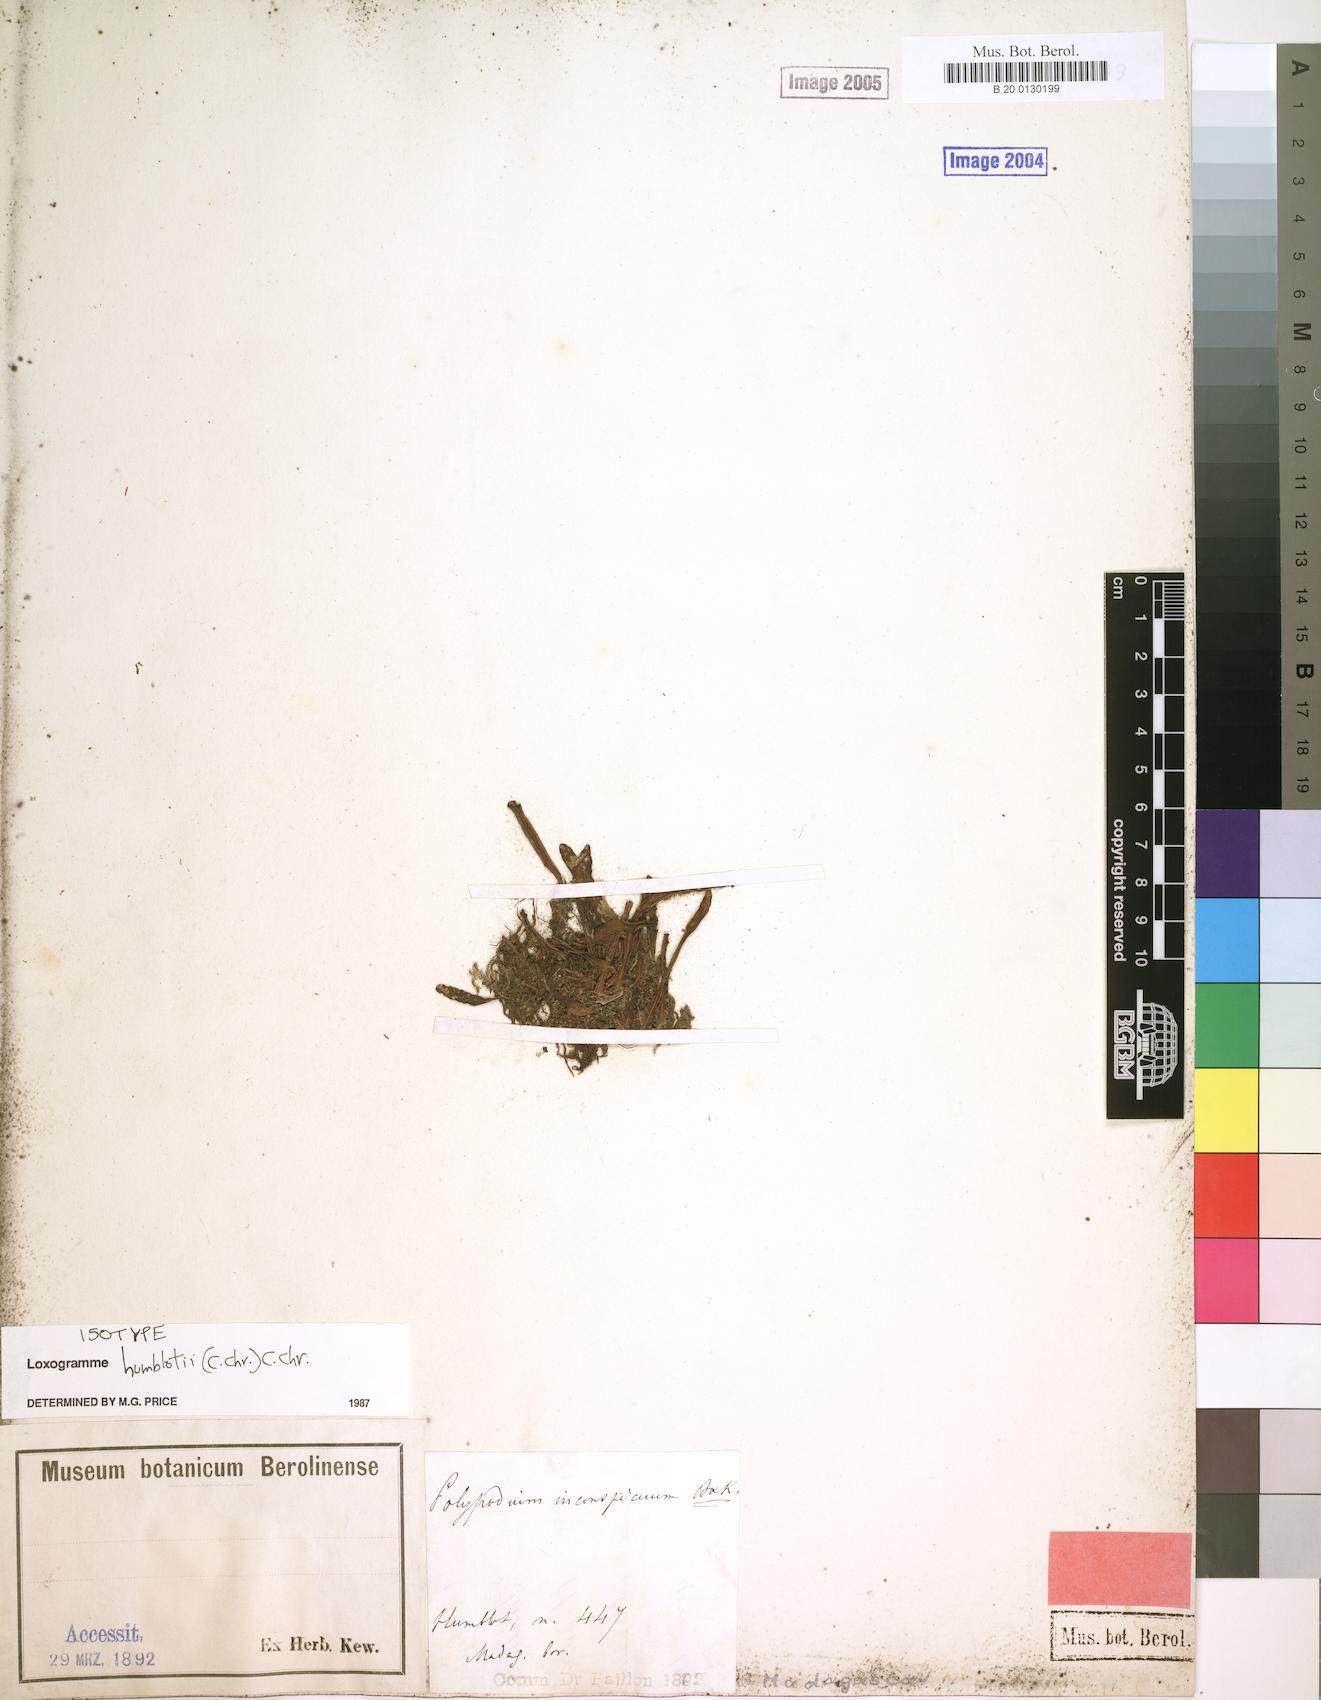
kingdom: Plantae
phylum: Tracheophyta
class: Polypodiopsida
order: Polypodiales
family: Polypodiaceae
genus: Loxogramme
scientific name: Loxogramme humblotii
